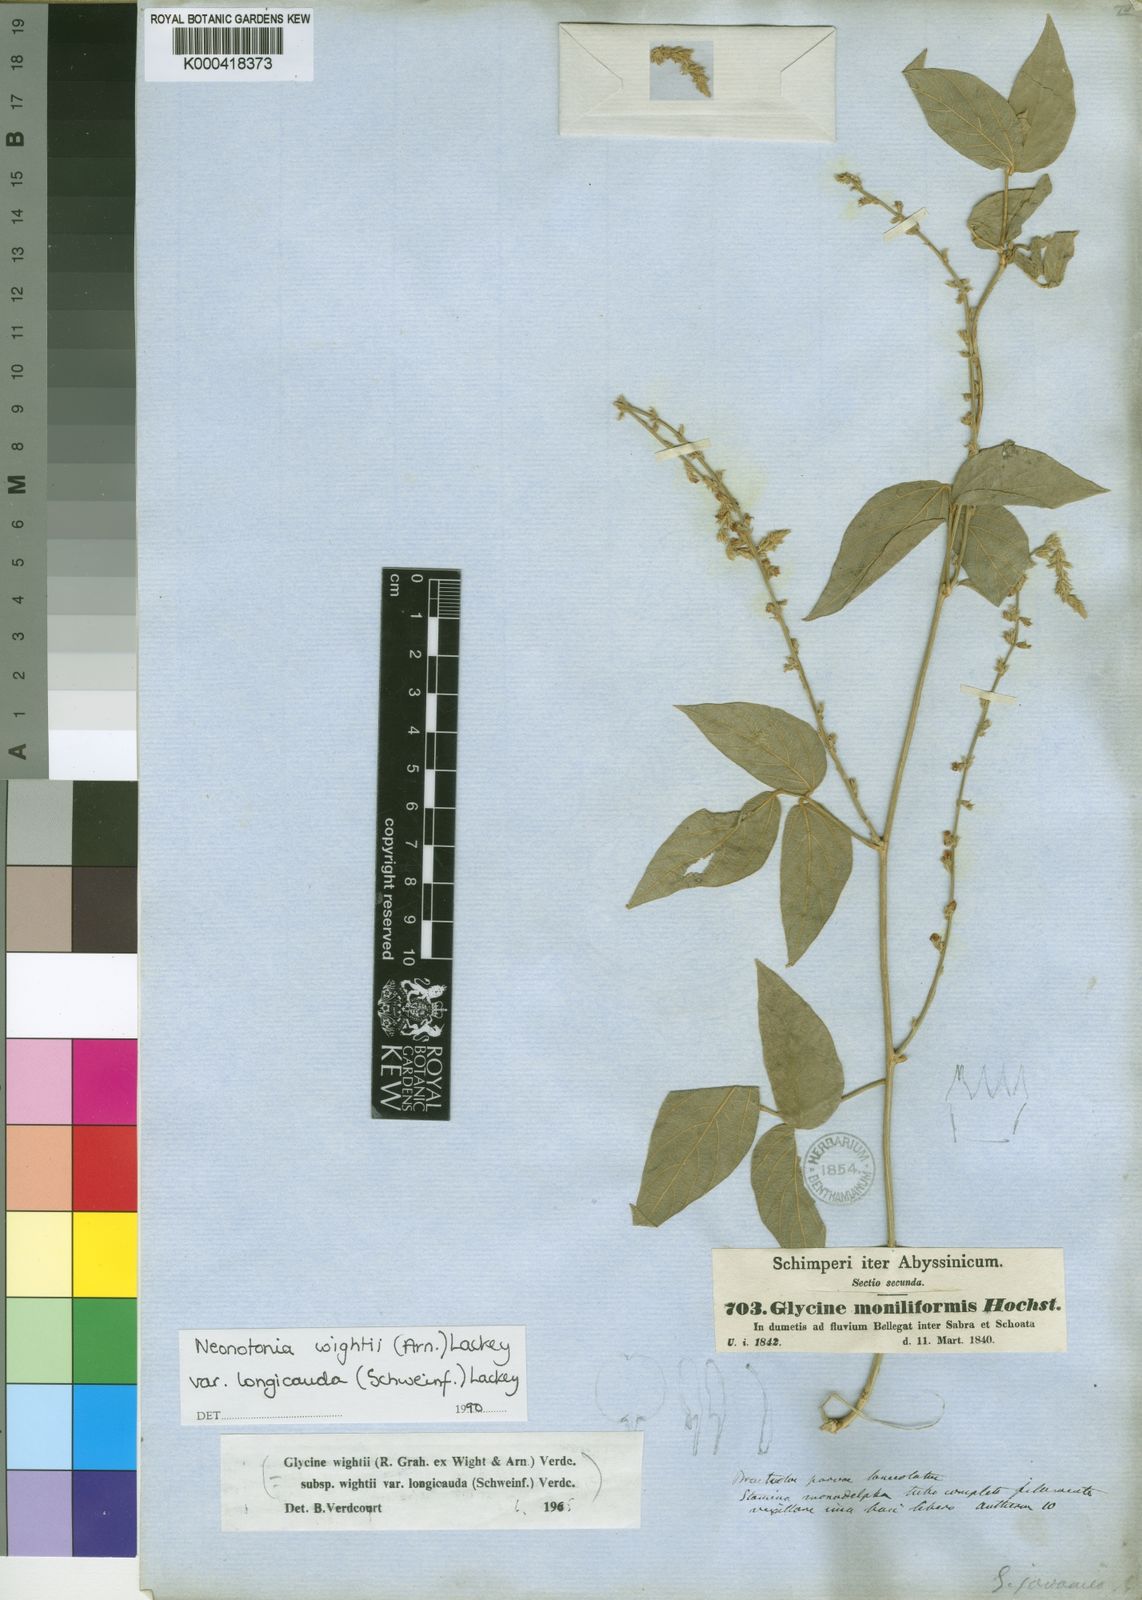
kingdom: Plantae
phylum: Tracheophyta
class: Magnoliopsida
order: Fabales
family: Fabaceae
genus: Neonotonia
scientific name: Neonotonia wightii
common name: Perennial soybean
